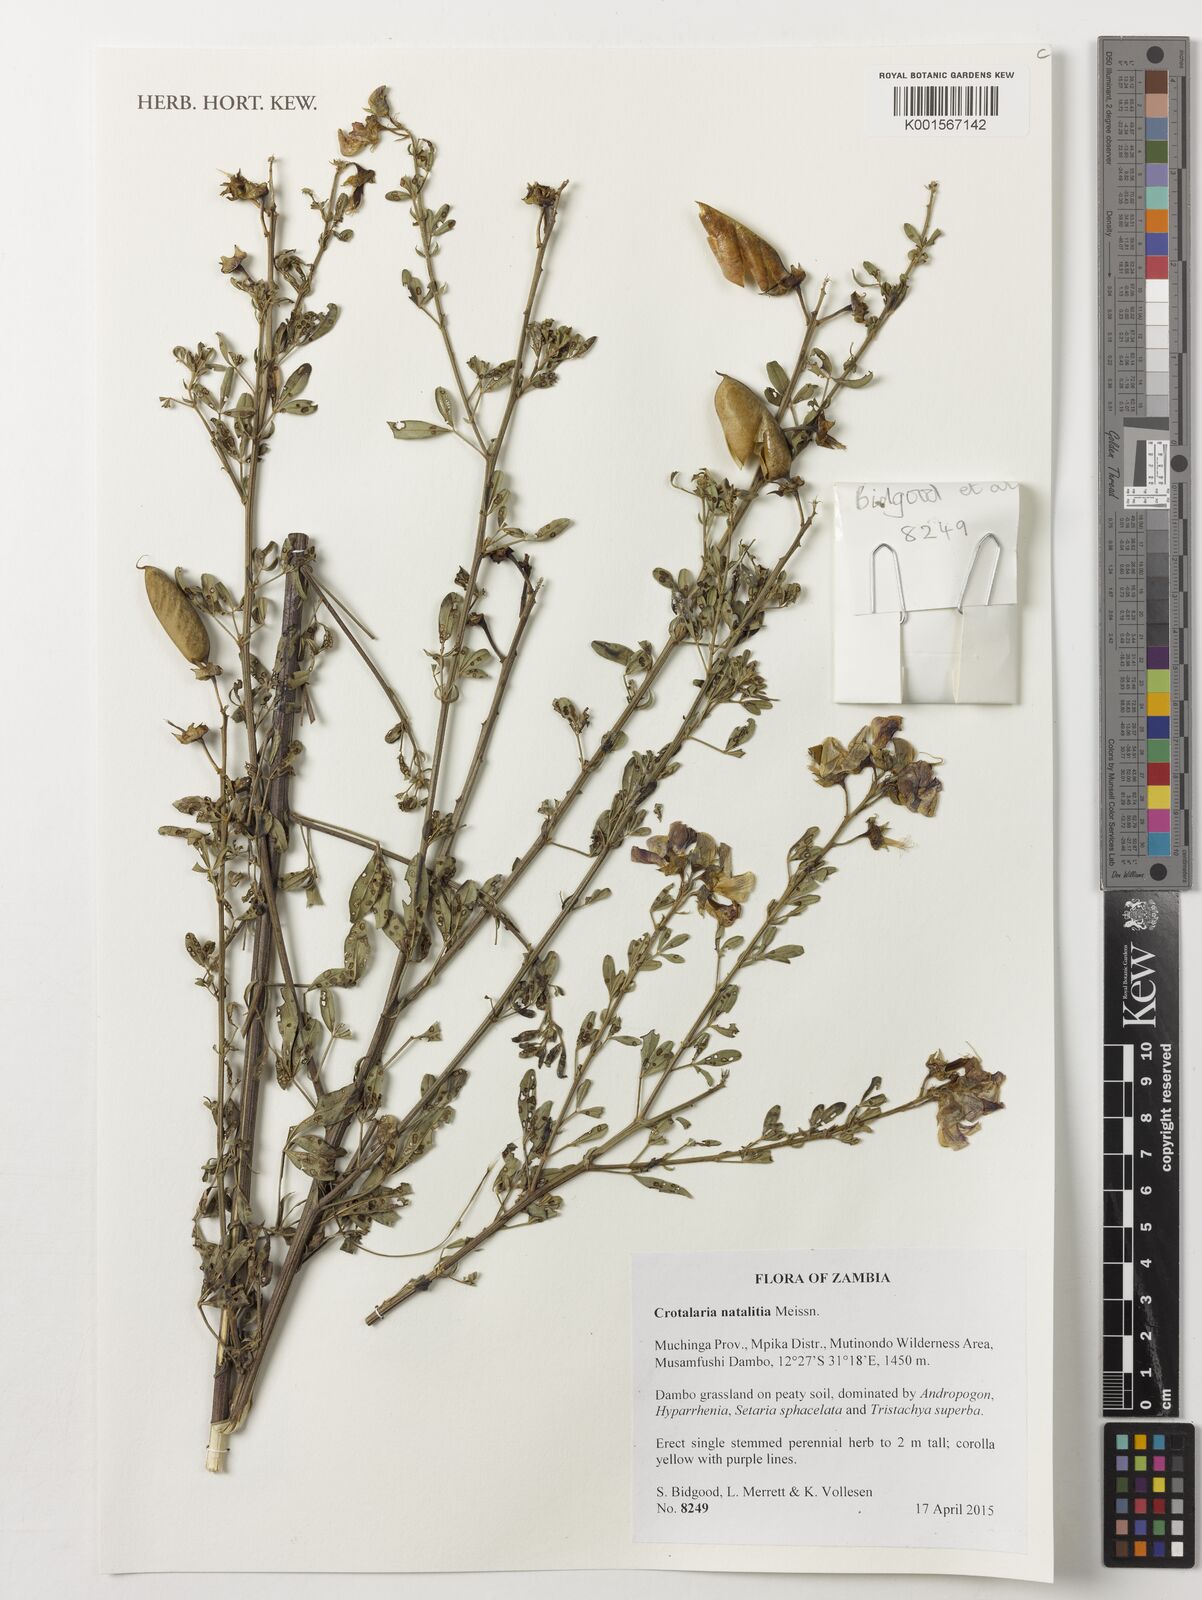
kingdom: Plantae
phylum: Tracheophyta
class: Magnoliopsida
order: Fabales
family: Fabaceae
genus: Crotalaria
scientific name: Crotalaria natalitia
